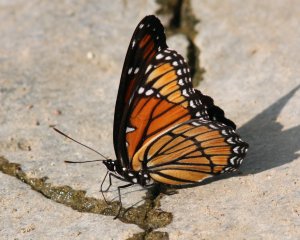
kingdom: Animalia
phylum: Arthropoda
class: Insecta
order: Lepidoptera
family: Nymphalidae
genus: Limenitis
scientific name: Limenitis archippus
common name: Viceroy
